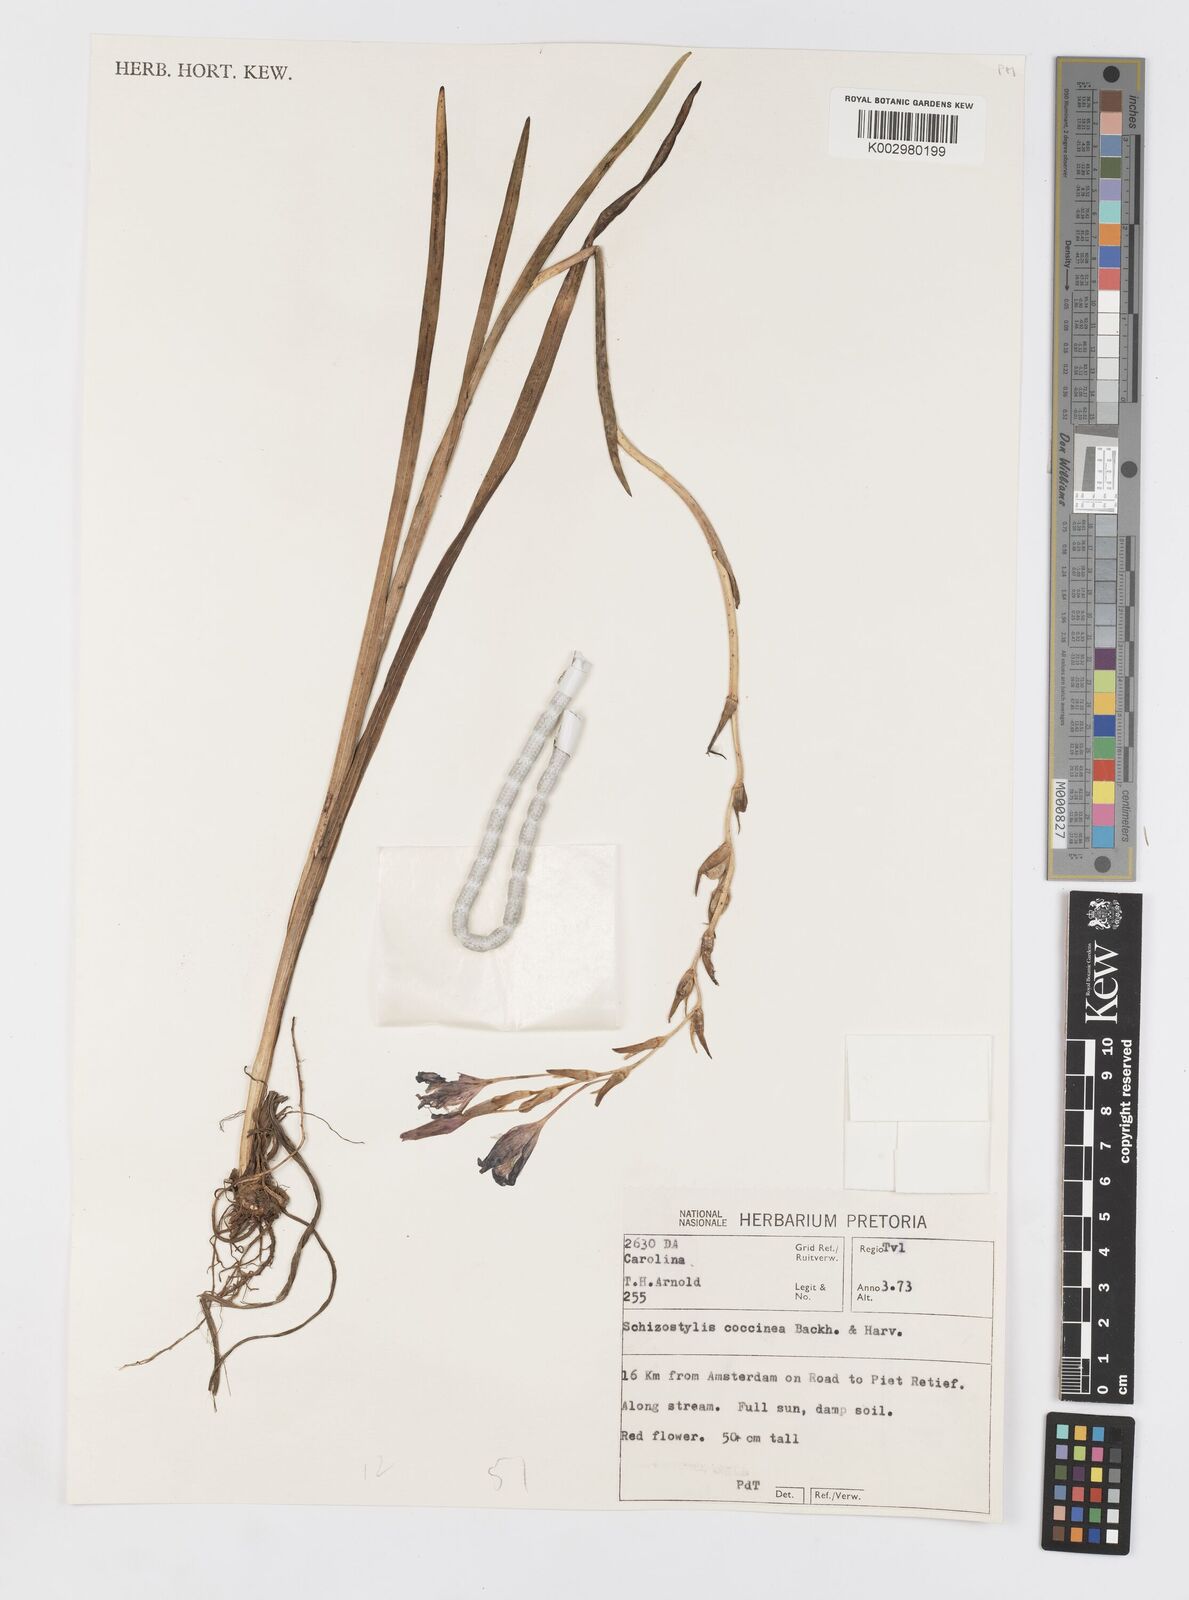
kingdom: Plantae
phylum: Tracheophyta
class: Liliopsida
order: Asparagales
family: Iridaceae
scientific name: Iridaceae
